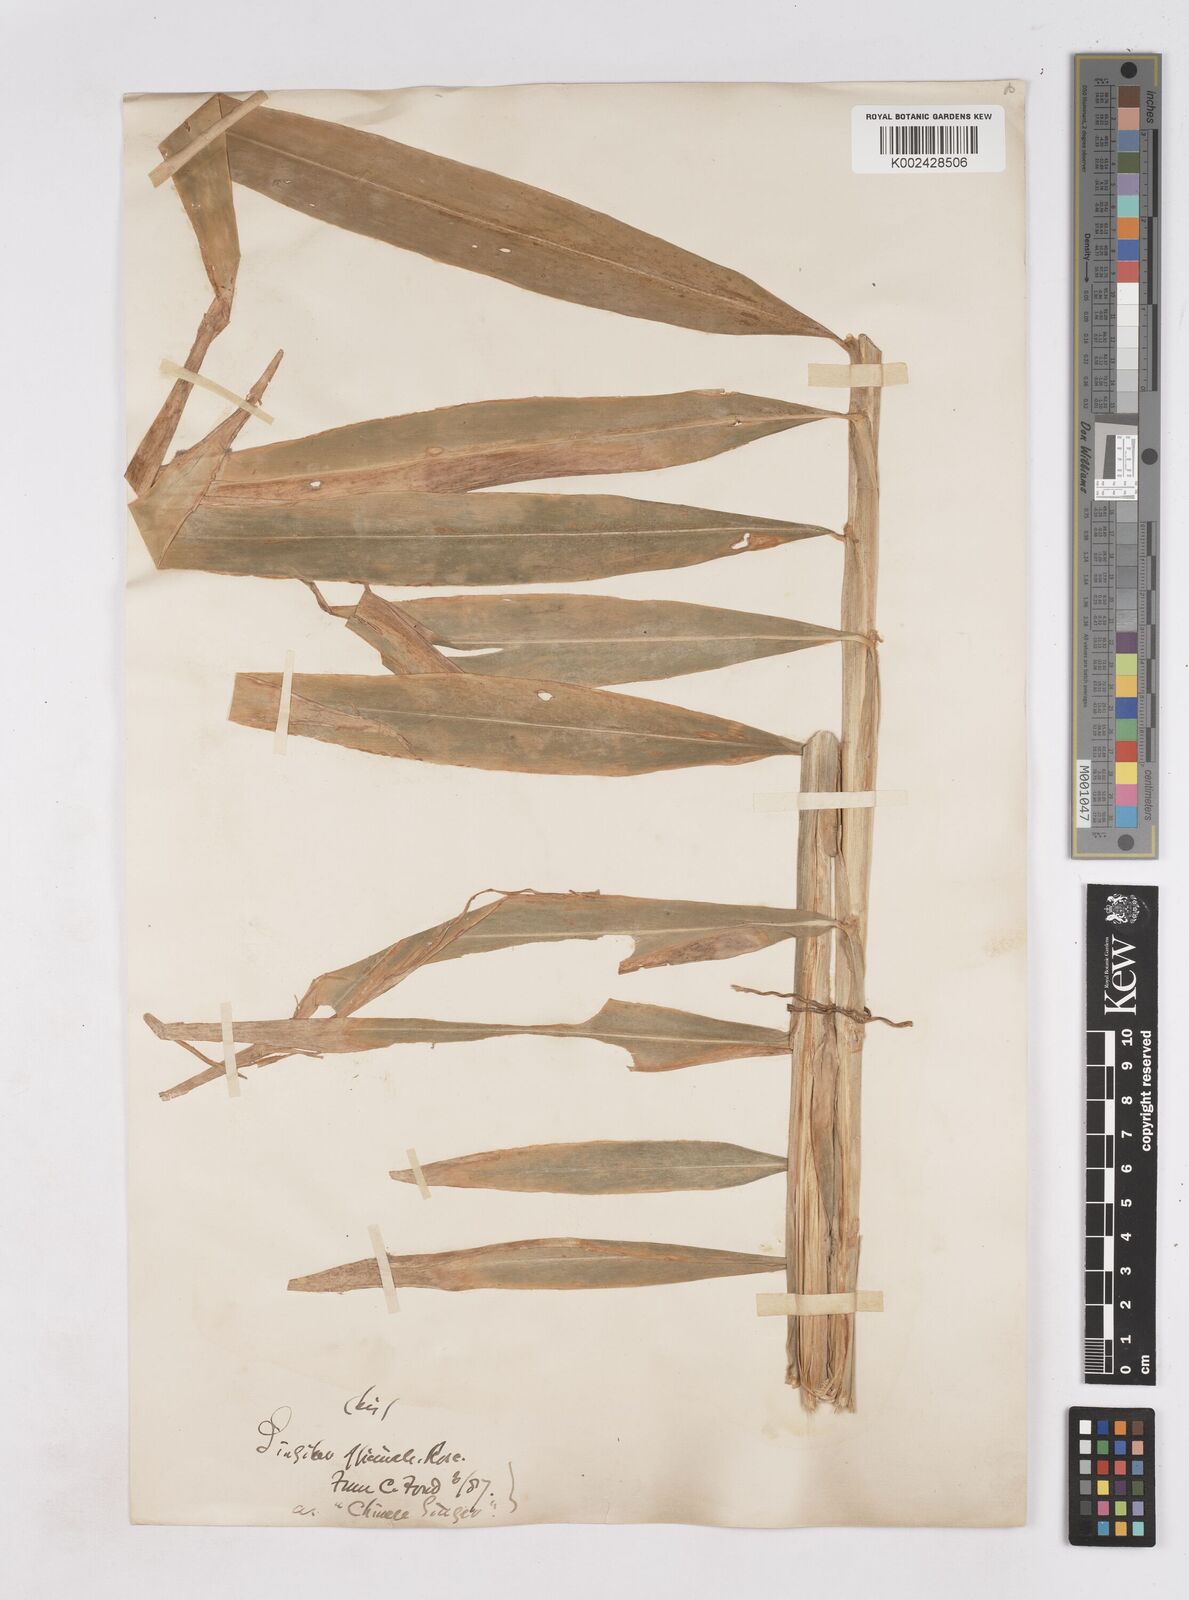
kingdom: Plantae
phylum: Tracheophyta
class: Liliopsida
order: Zingiberales
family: Zingiberaceae
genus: Zingiber
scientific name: Zingiber officinale
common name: Ginger
